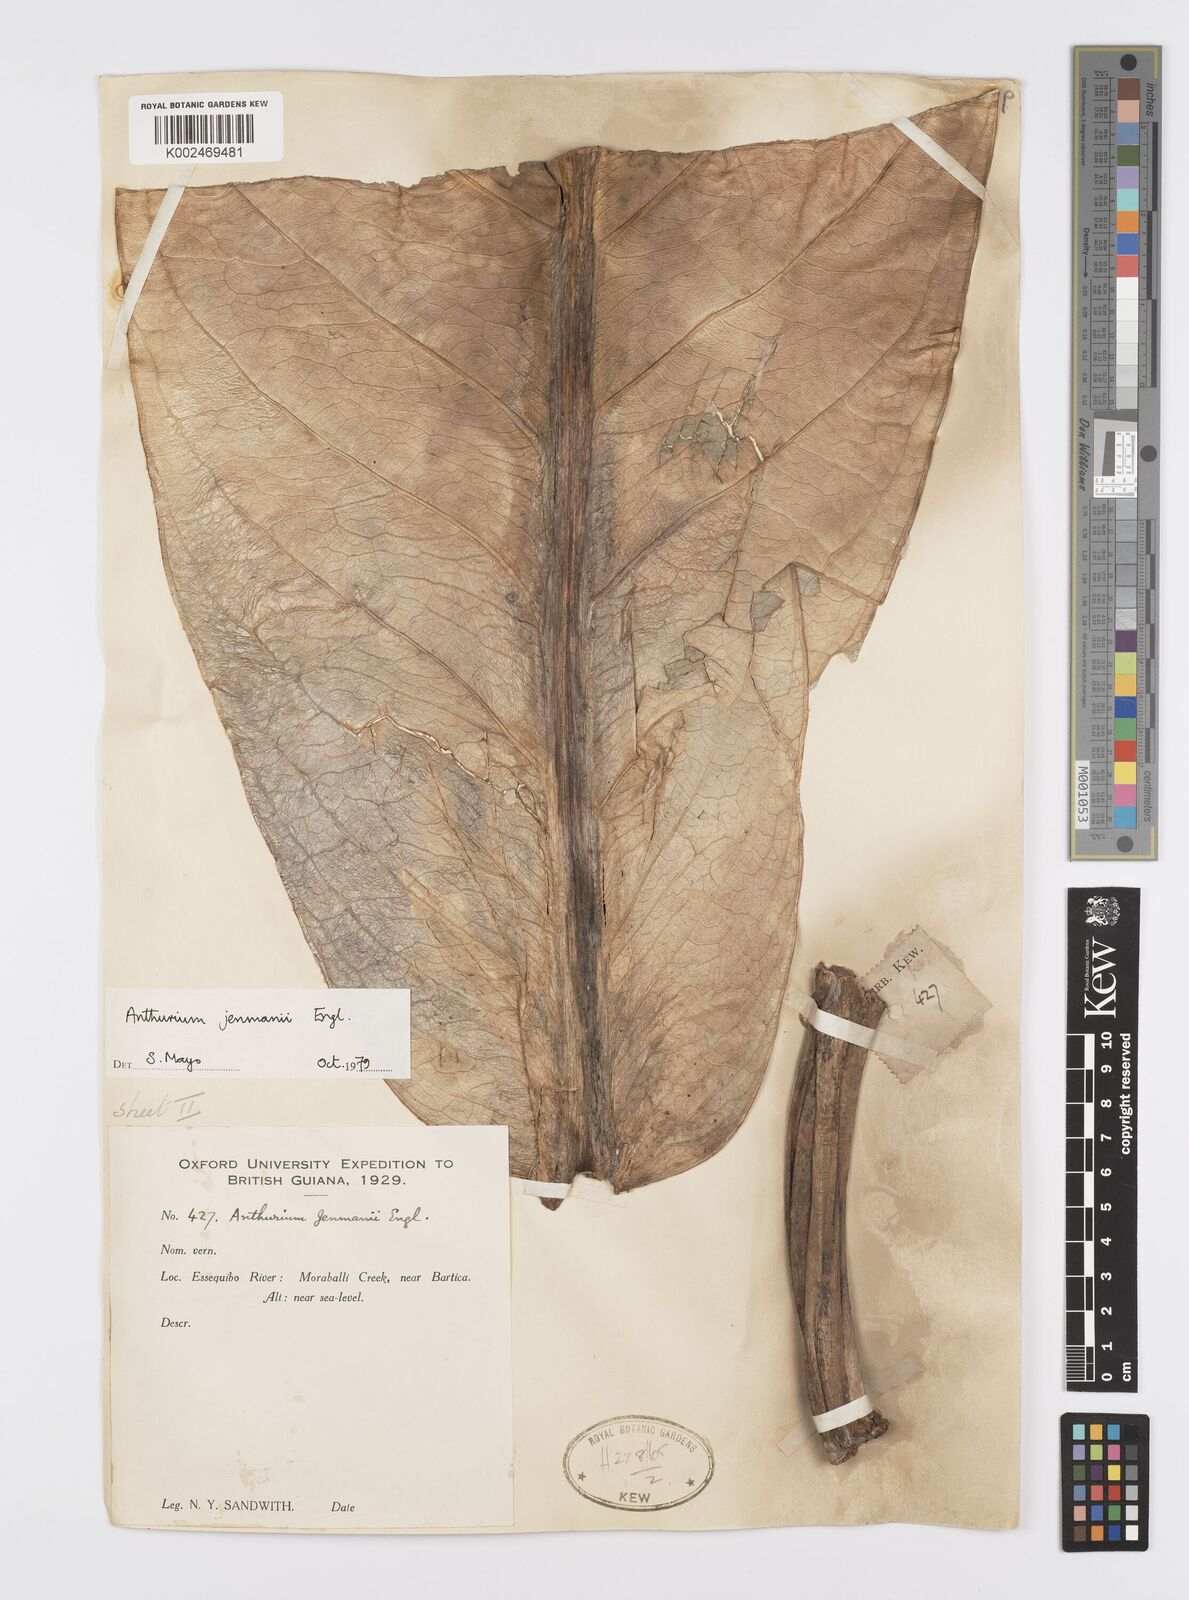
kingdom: Plantae
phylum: Tracheophyta
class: Liliopsida
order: Alismatales
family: Araceae
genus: Anthurium
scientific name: Anthurium jenmanii
